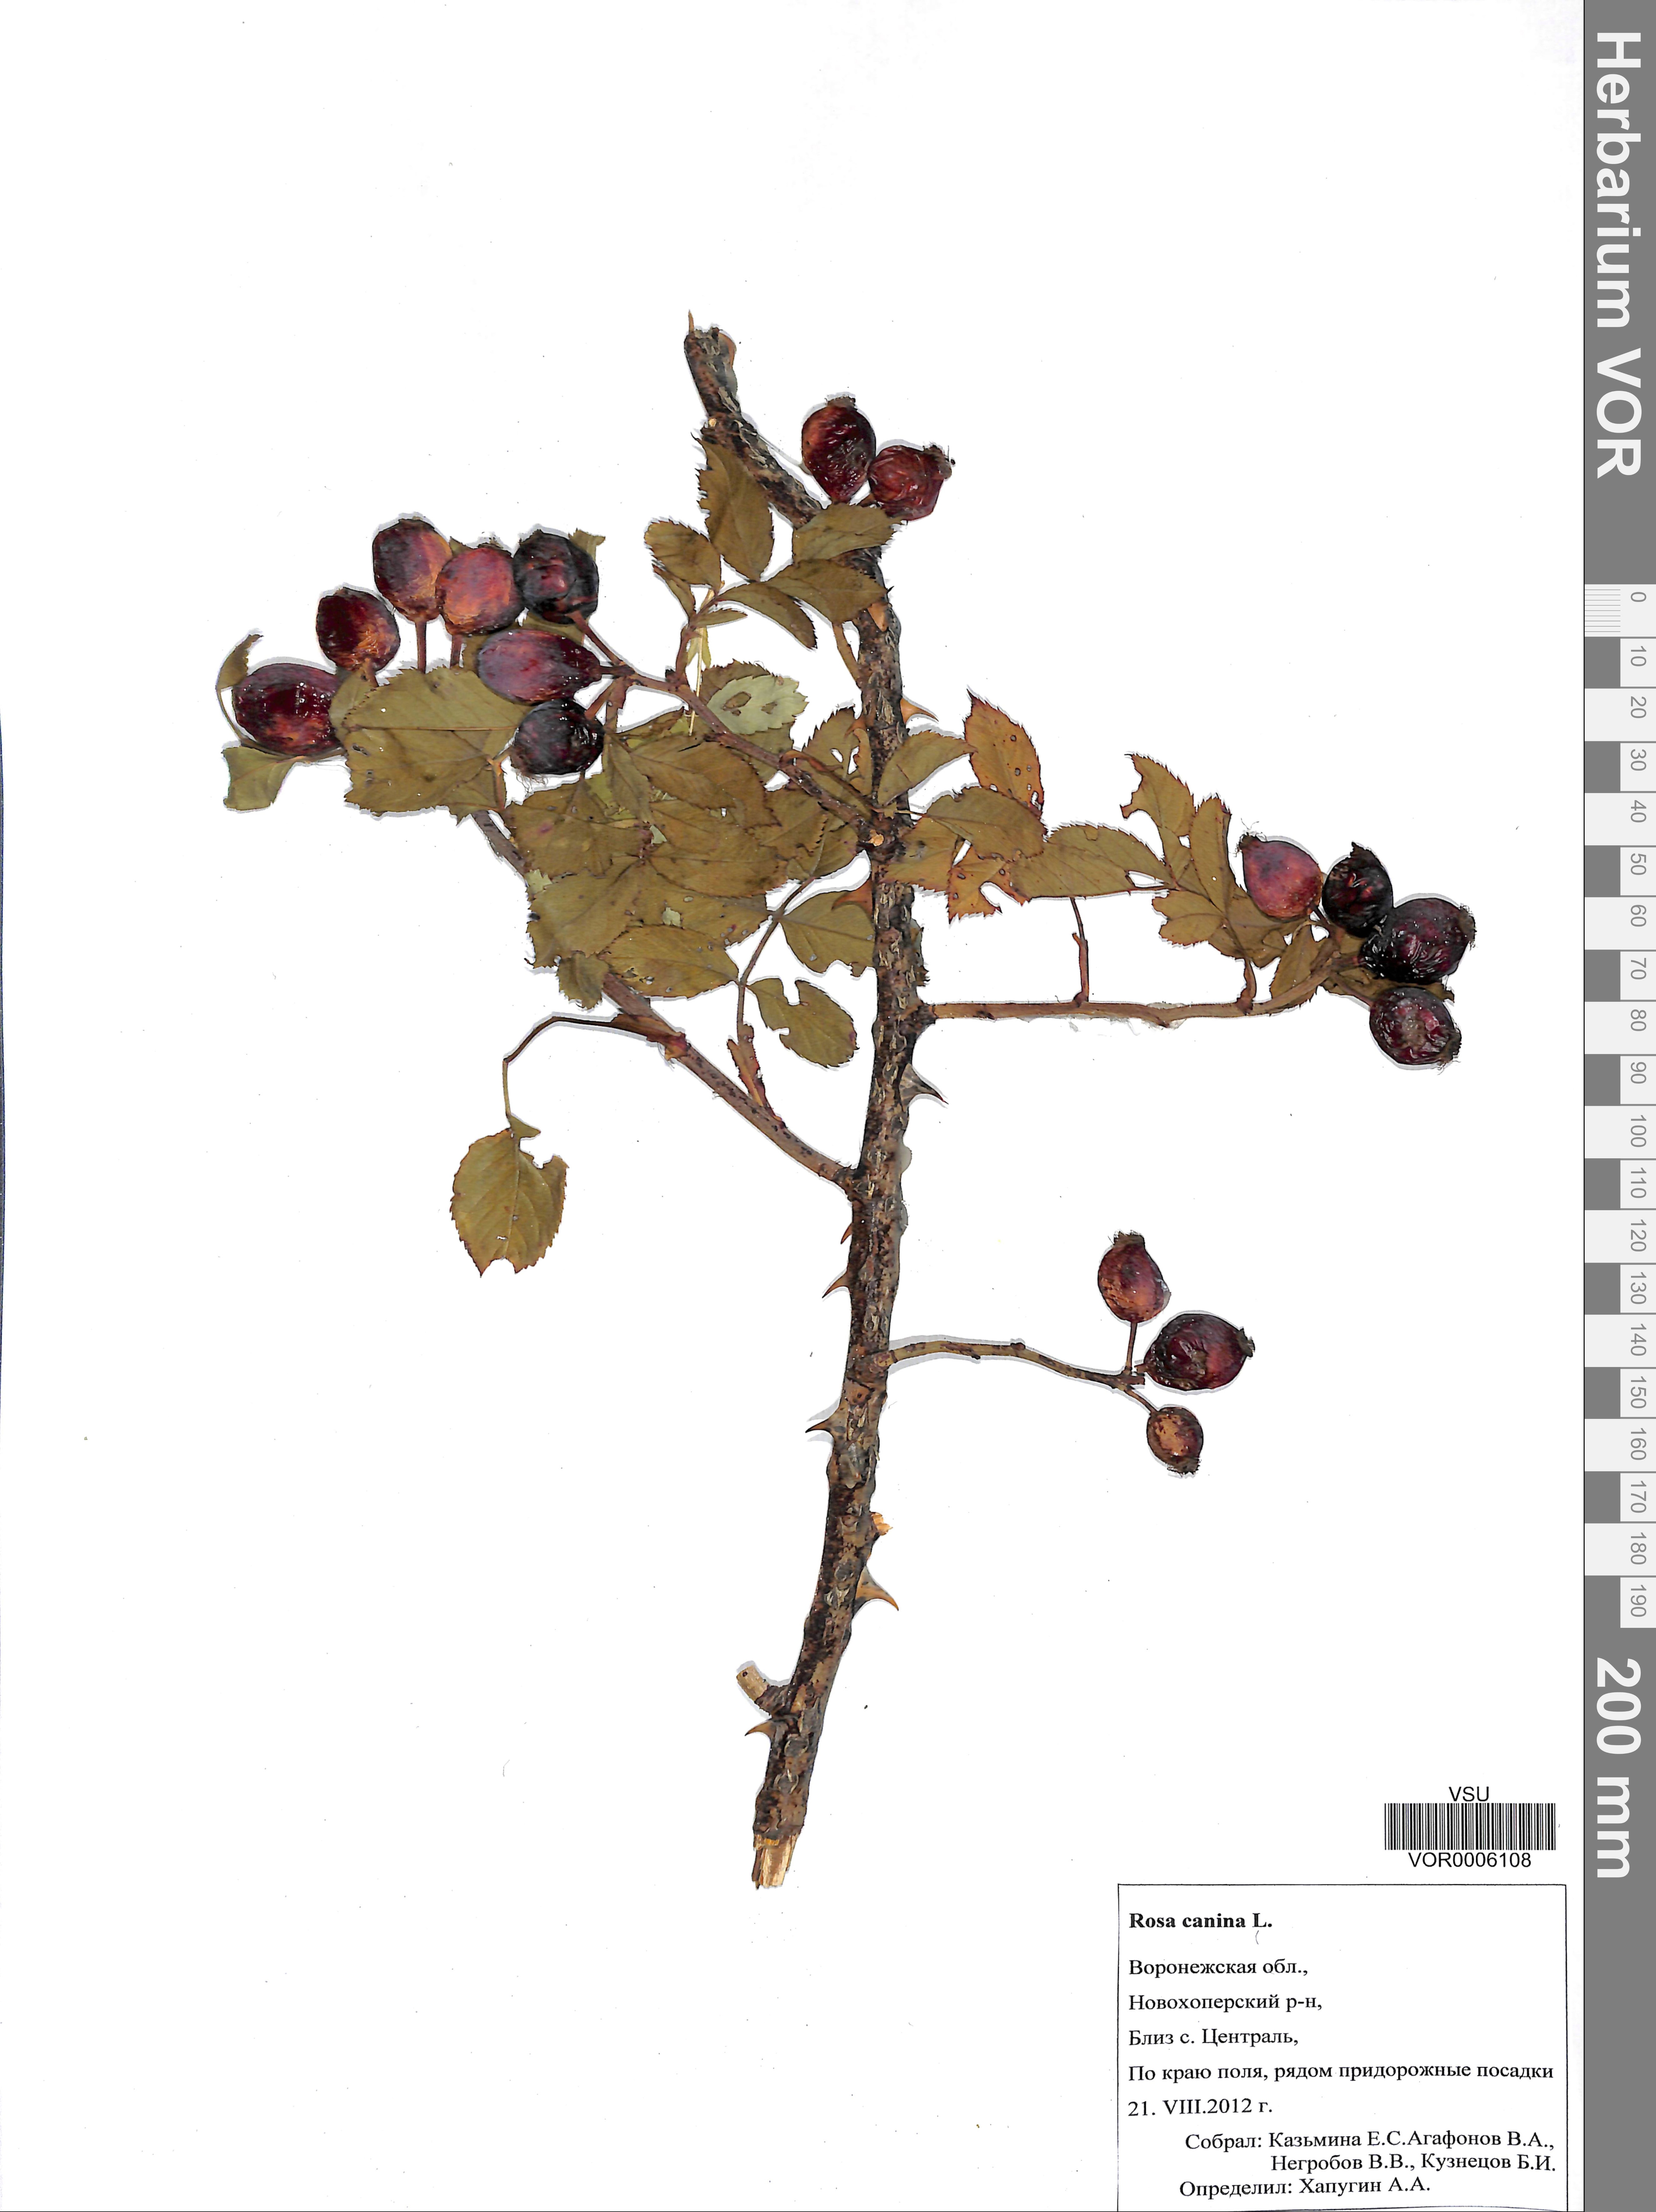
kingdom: Plantae
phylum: Tracheophyta
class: Magnoliopsida
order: Rosales
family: Rosaceae
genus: Rosa
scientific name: Rosa canina
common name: Dog rose
